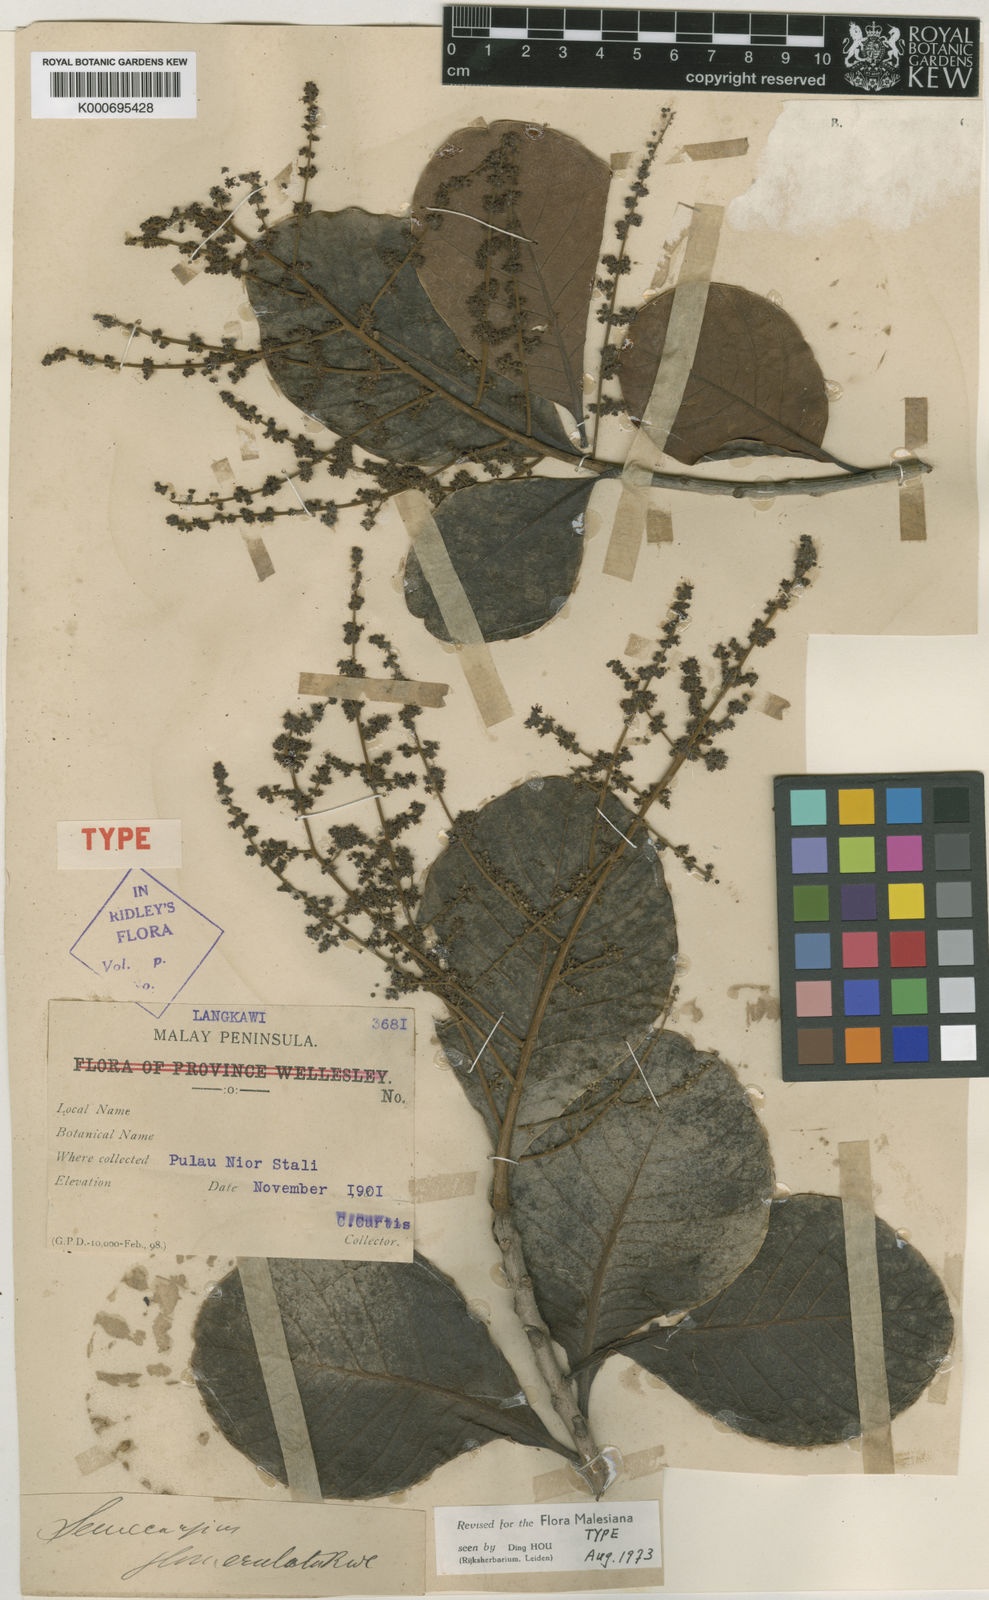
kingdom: Plantae
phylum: Tracheophyta
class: Magnoliopsida
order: Sapindales
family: Anacardiaceae
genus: Semecarpus
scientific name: Semecarpus cochinchinensis
